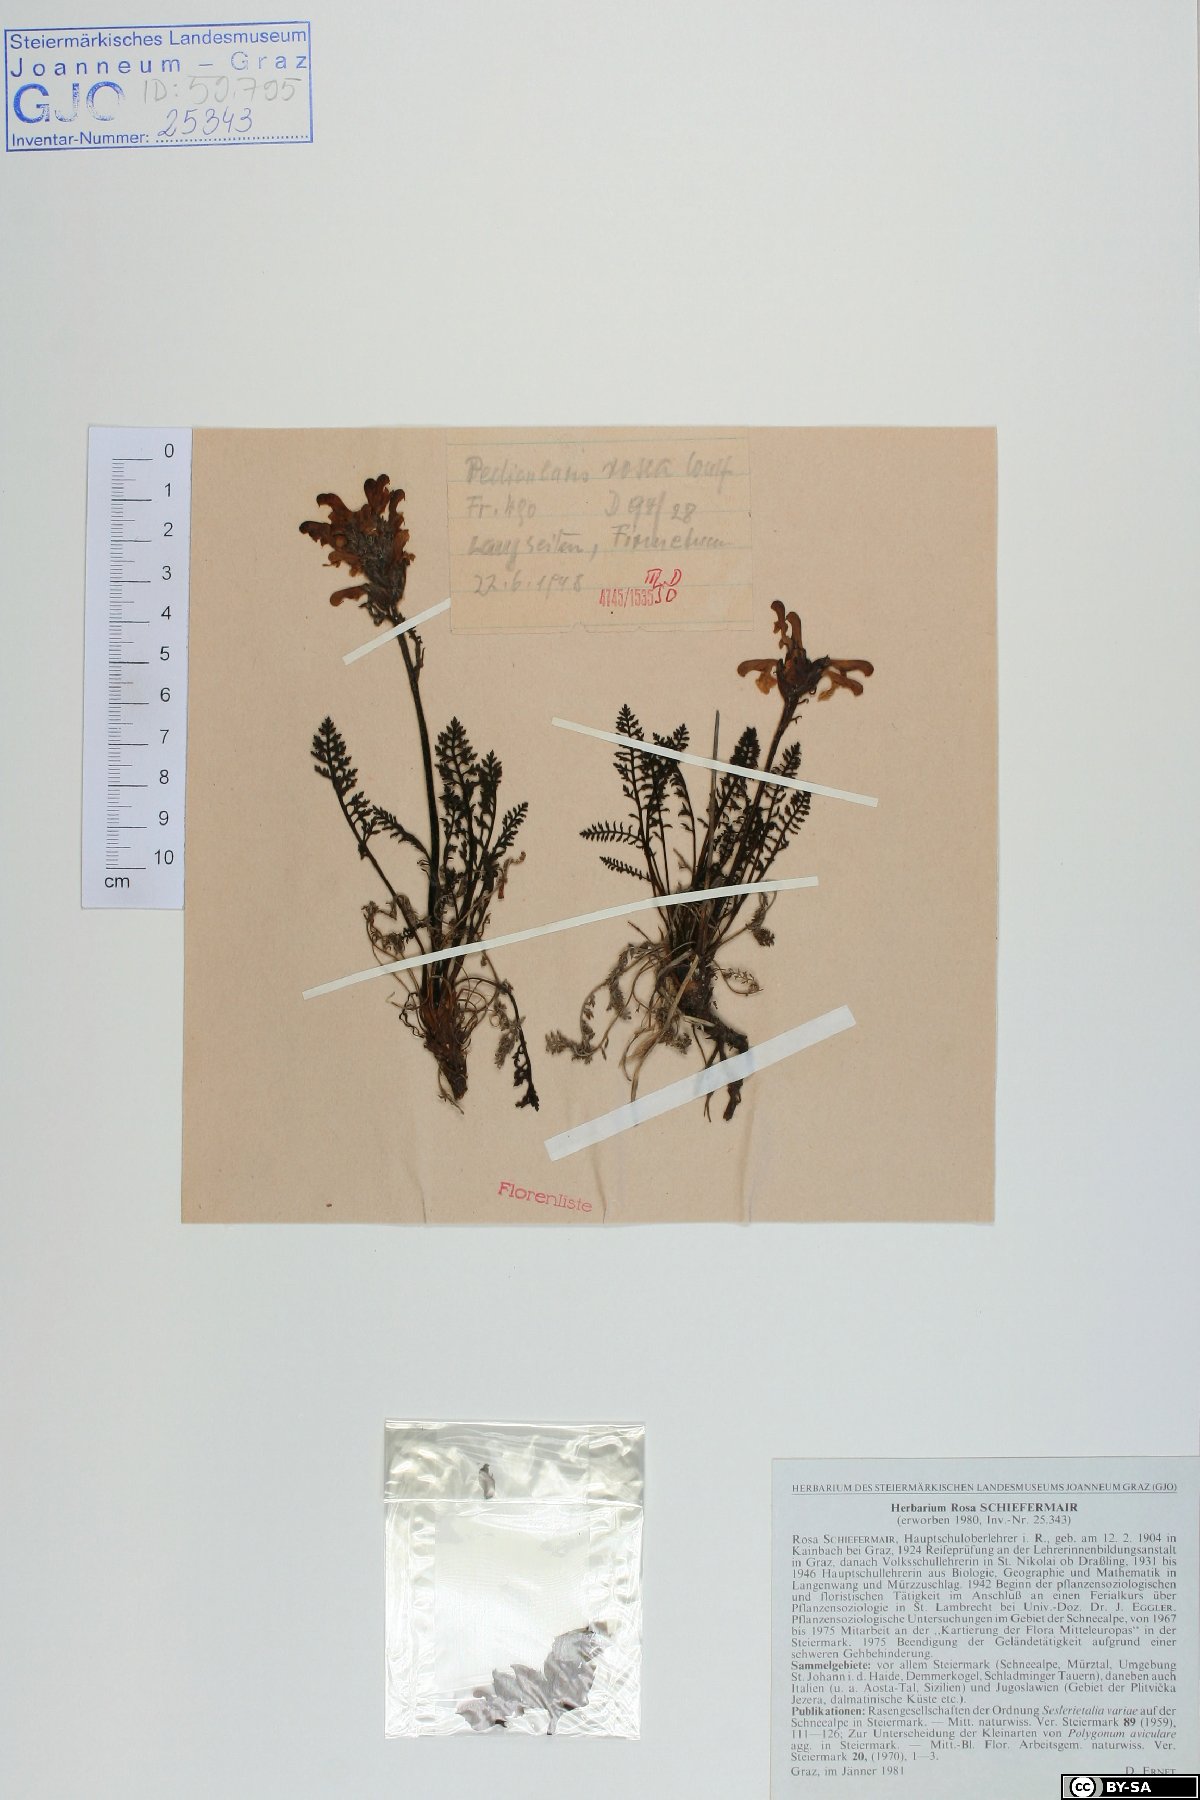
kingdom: Plantae
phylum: Tracheophyta
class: Magnoliopsida
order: Lamiales
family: Orobanchaceae
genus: Pedicularis
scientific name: Pedicularis rosea
